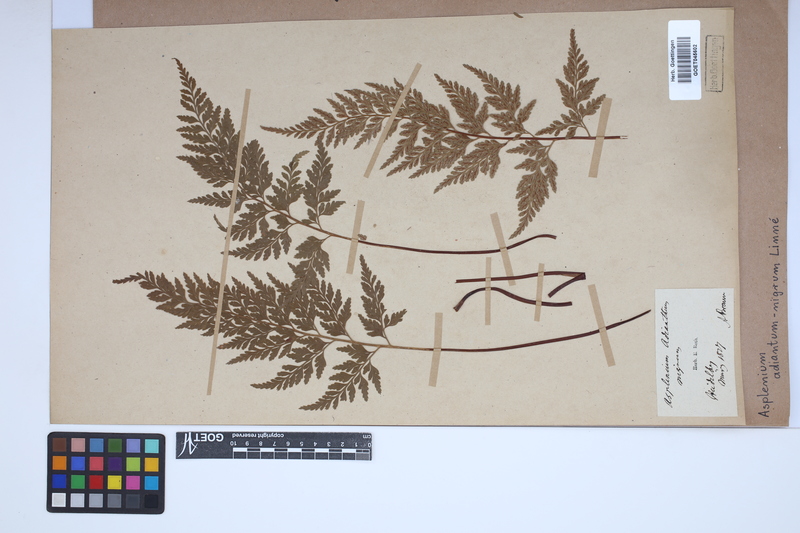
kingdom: Plantae
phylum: Tracheophyta
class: Polypodiopsida
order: Polypodiales
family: Aspleniaceae
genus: Asplenium
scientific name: Asplenium adiantum-nigrum
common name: Black spleenwort
